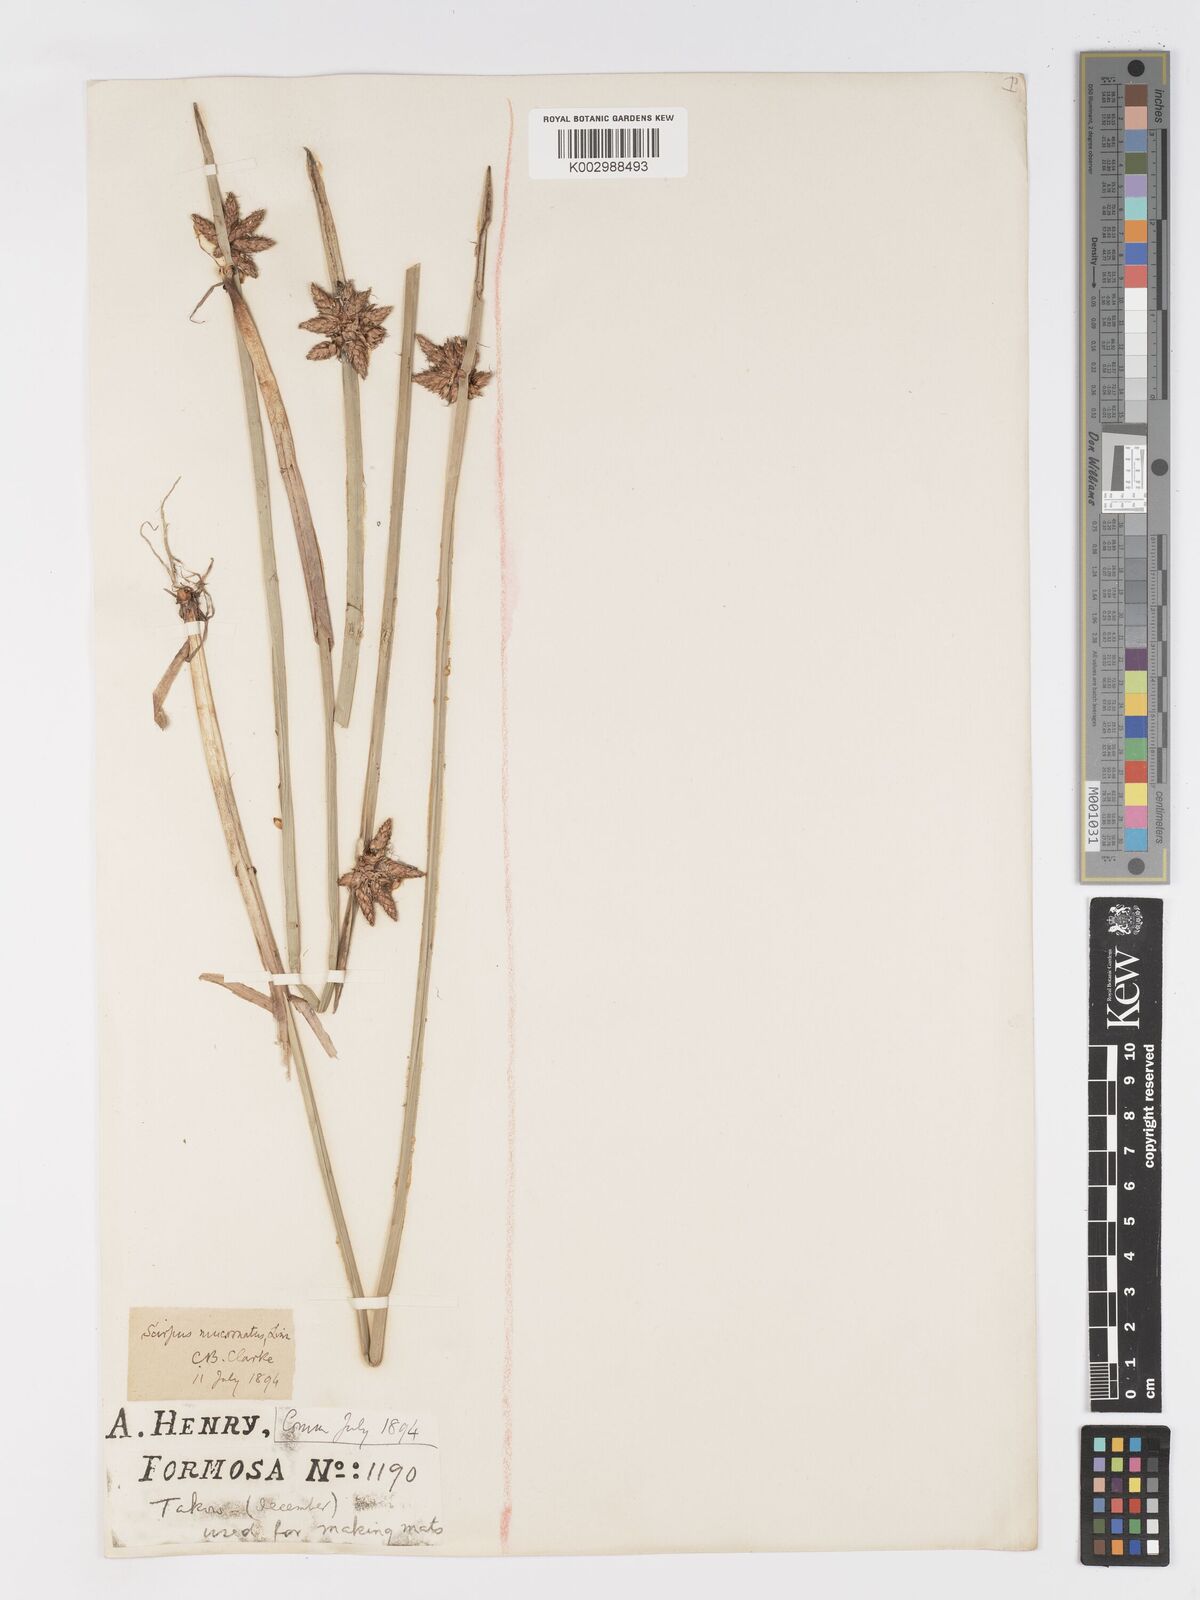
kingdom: Plantae
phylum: Tracheophyta
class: Liliopsida
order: Poales
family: Cyperaceae
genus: Schoenoplectiella
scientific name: Schoenoplectiella mucronata
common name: Bog bulrush
